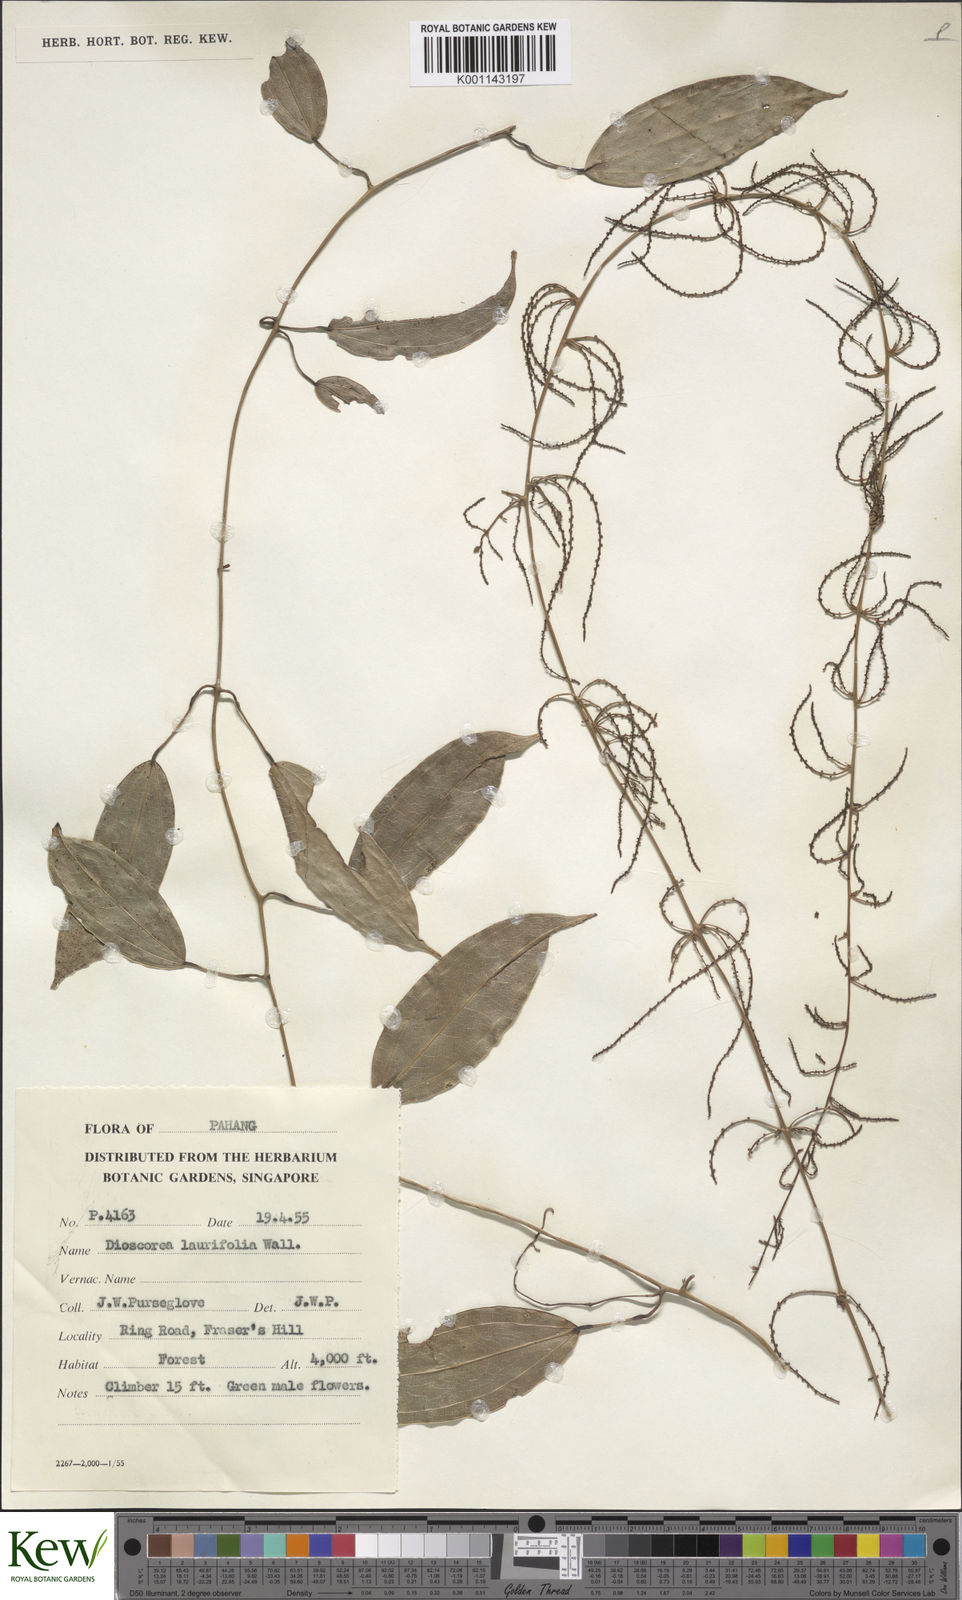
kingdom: Plantae
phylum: Tracheophyta
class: Liliopsida
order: Dioscoreales
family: Dioscoreaceae
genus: Dioscorea
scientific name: Dioscorea laurifolia
